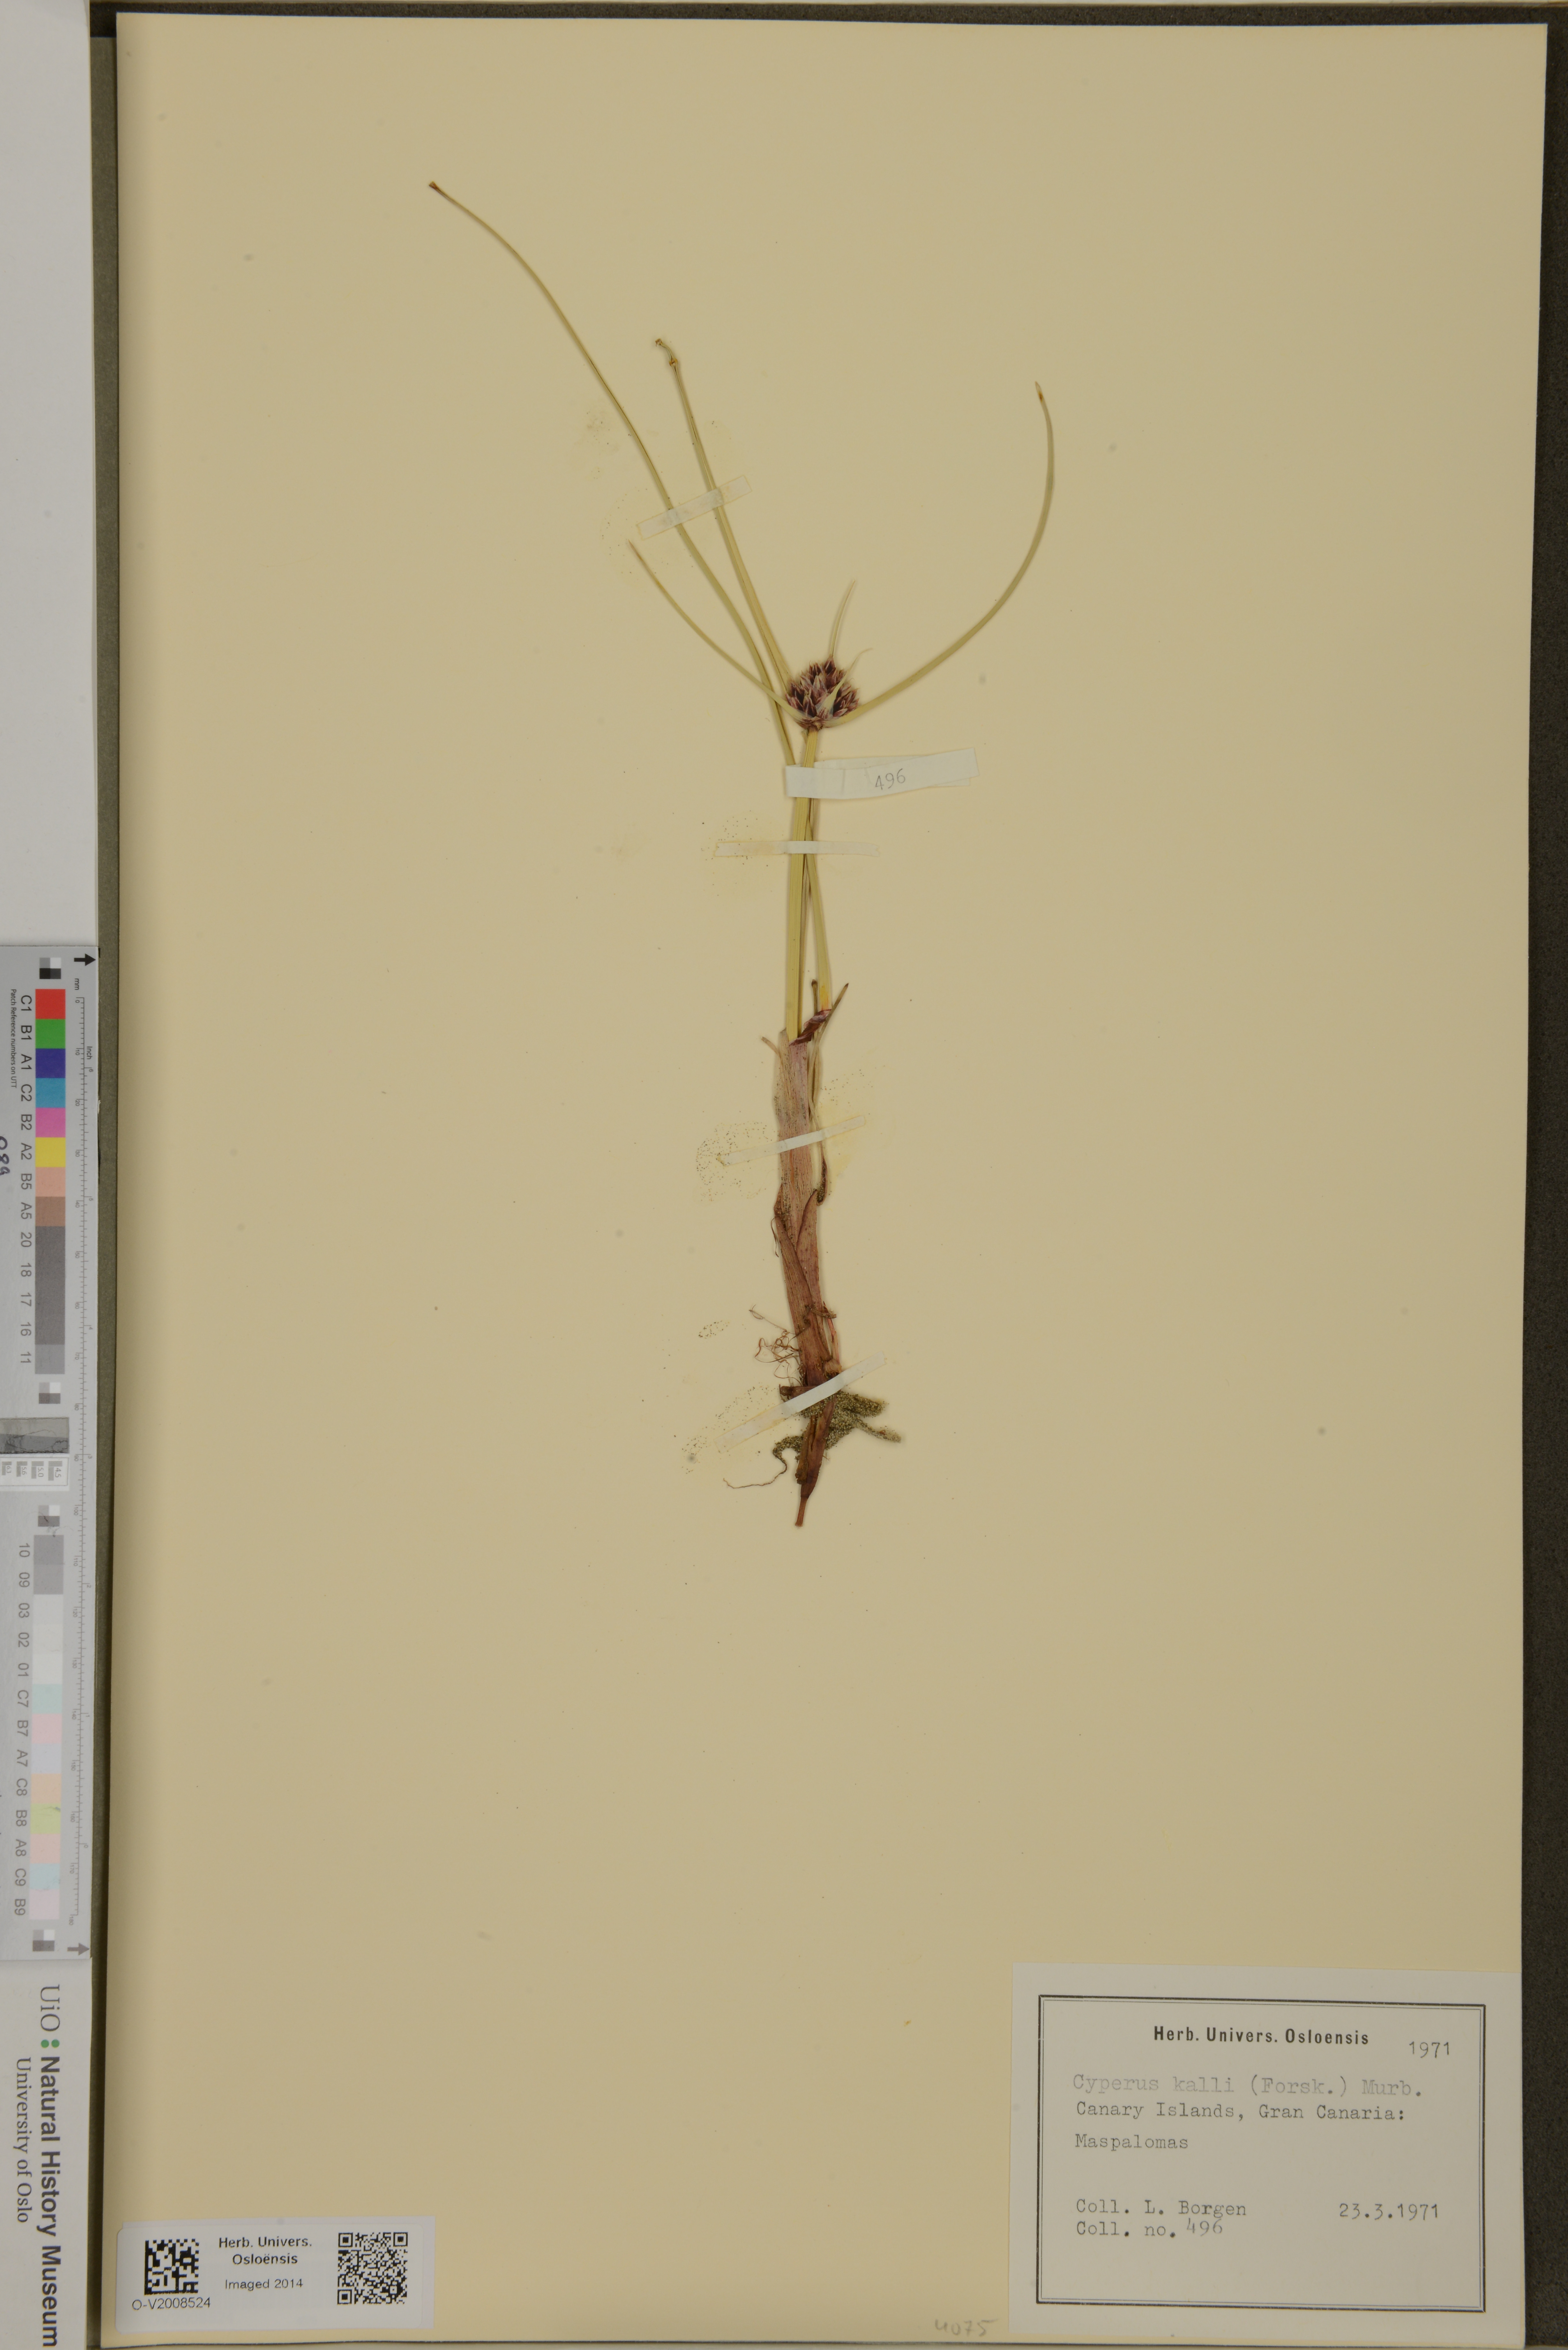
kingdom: Plantae
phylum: Tracheophyta
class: Liliopsida
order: Poales
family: Cyperaceae
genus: Cyperus
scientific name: Cyperus capitatus
